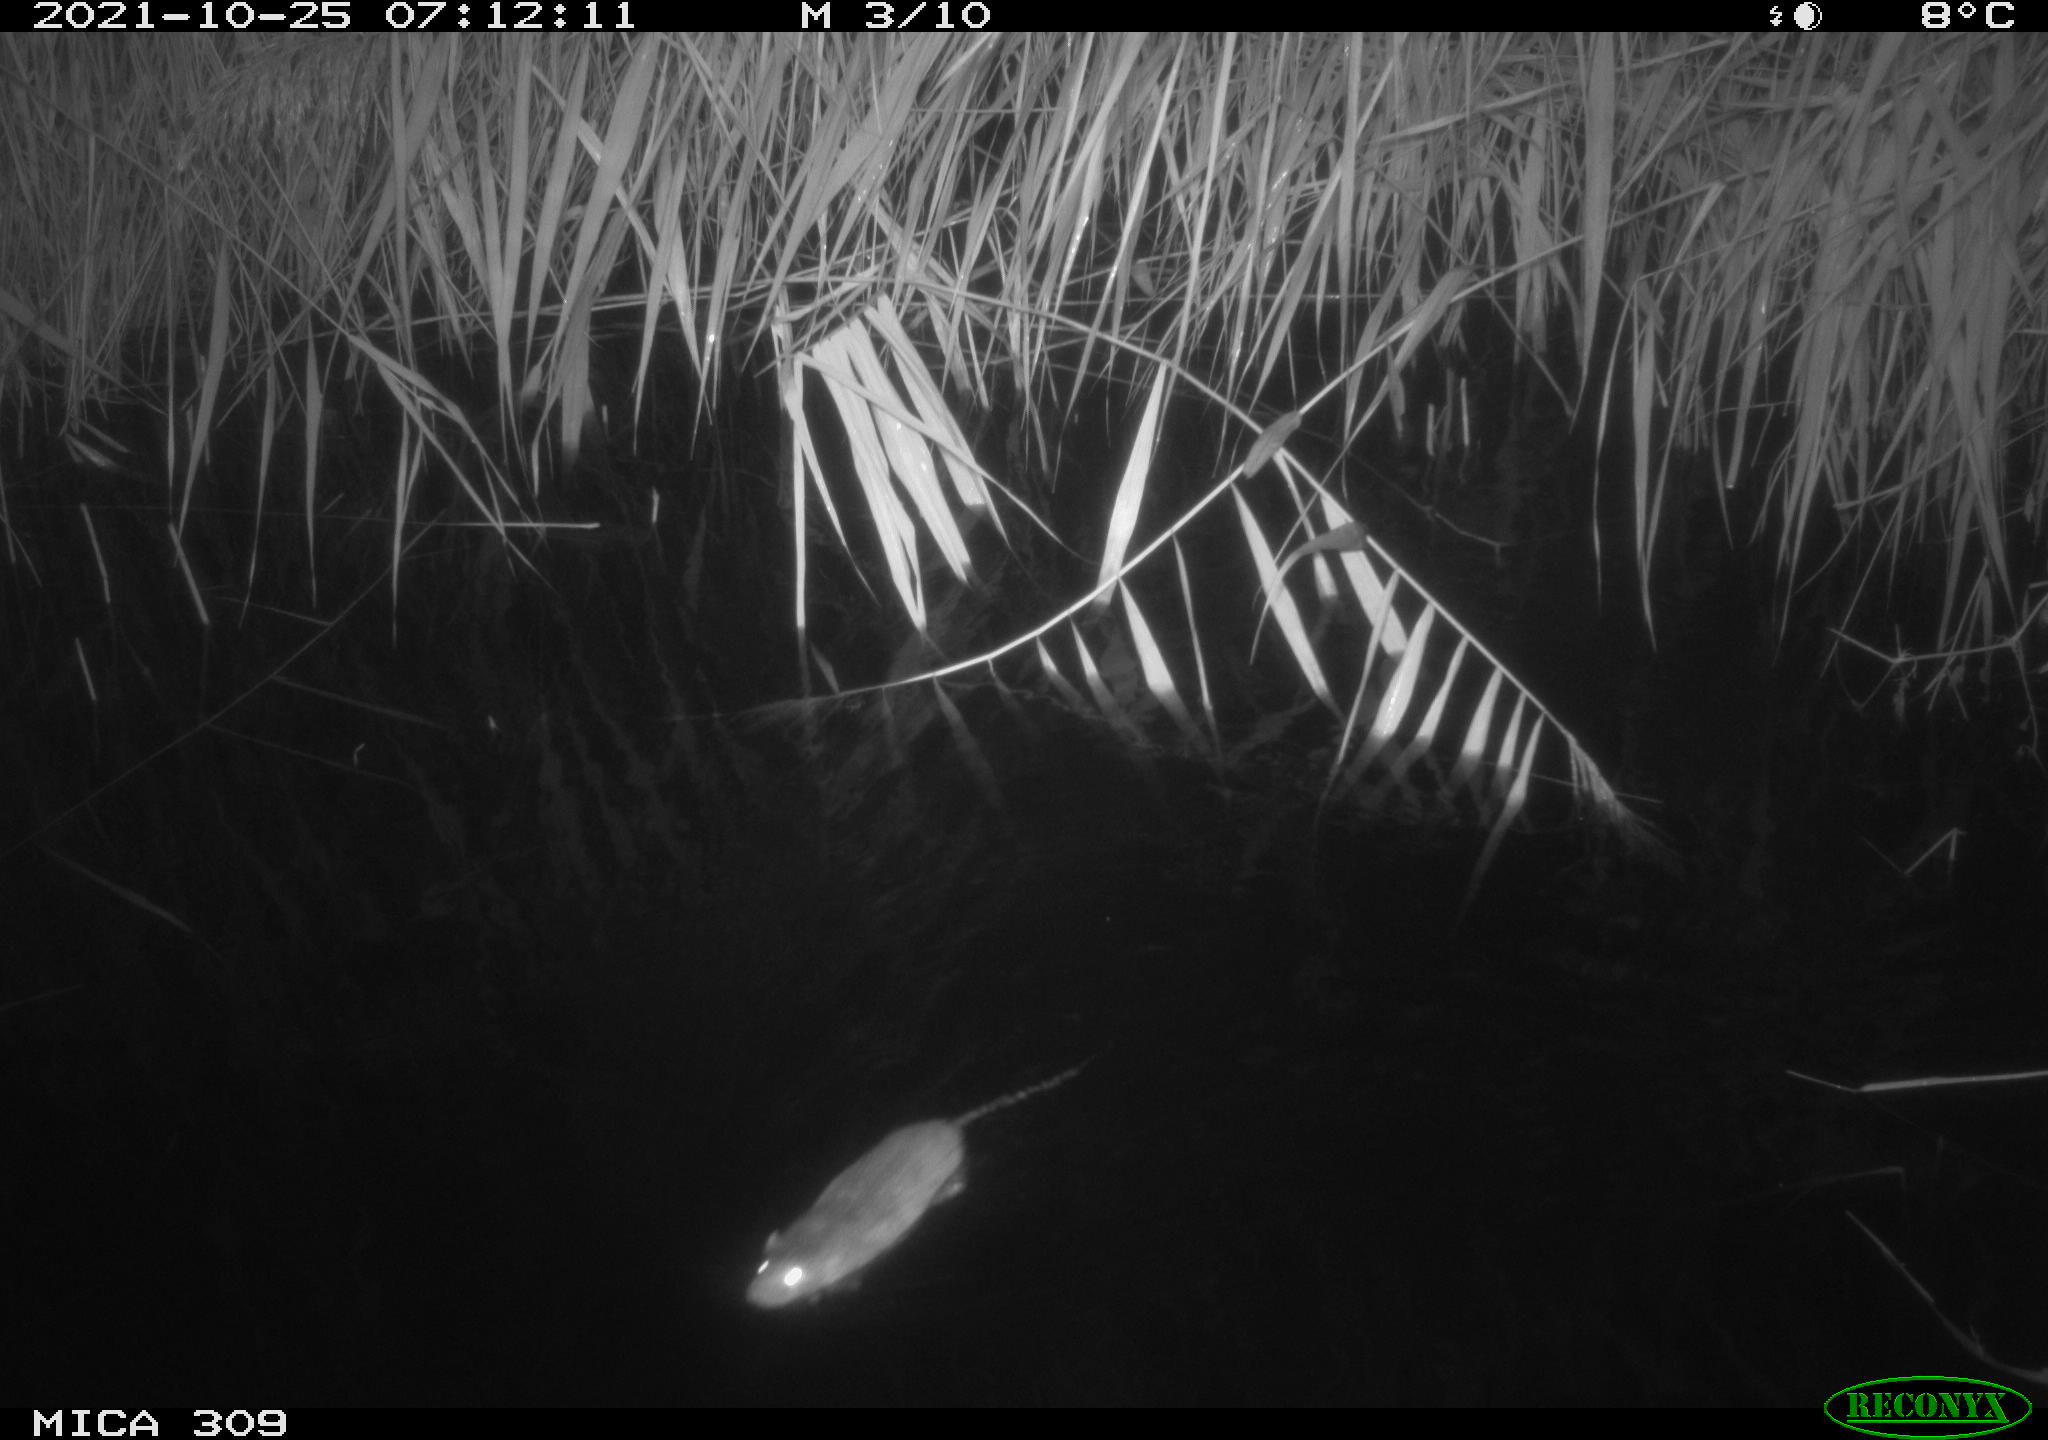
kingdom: Animalia
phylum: Chordata
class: Mammalia
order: Rodentia
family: Muridae
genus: Rattus
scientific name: Rattus norvegicus
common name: Brown rat
